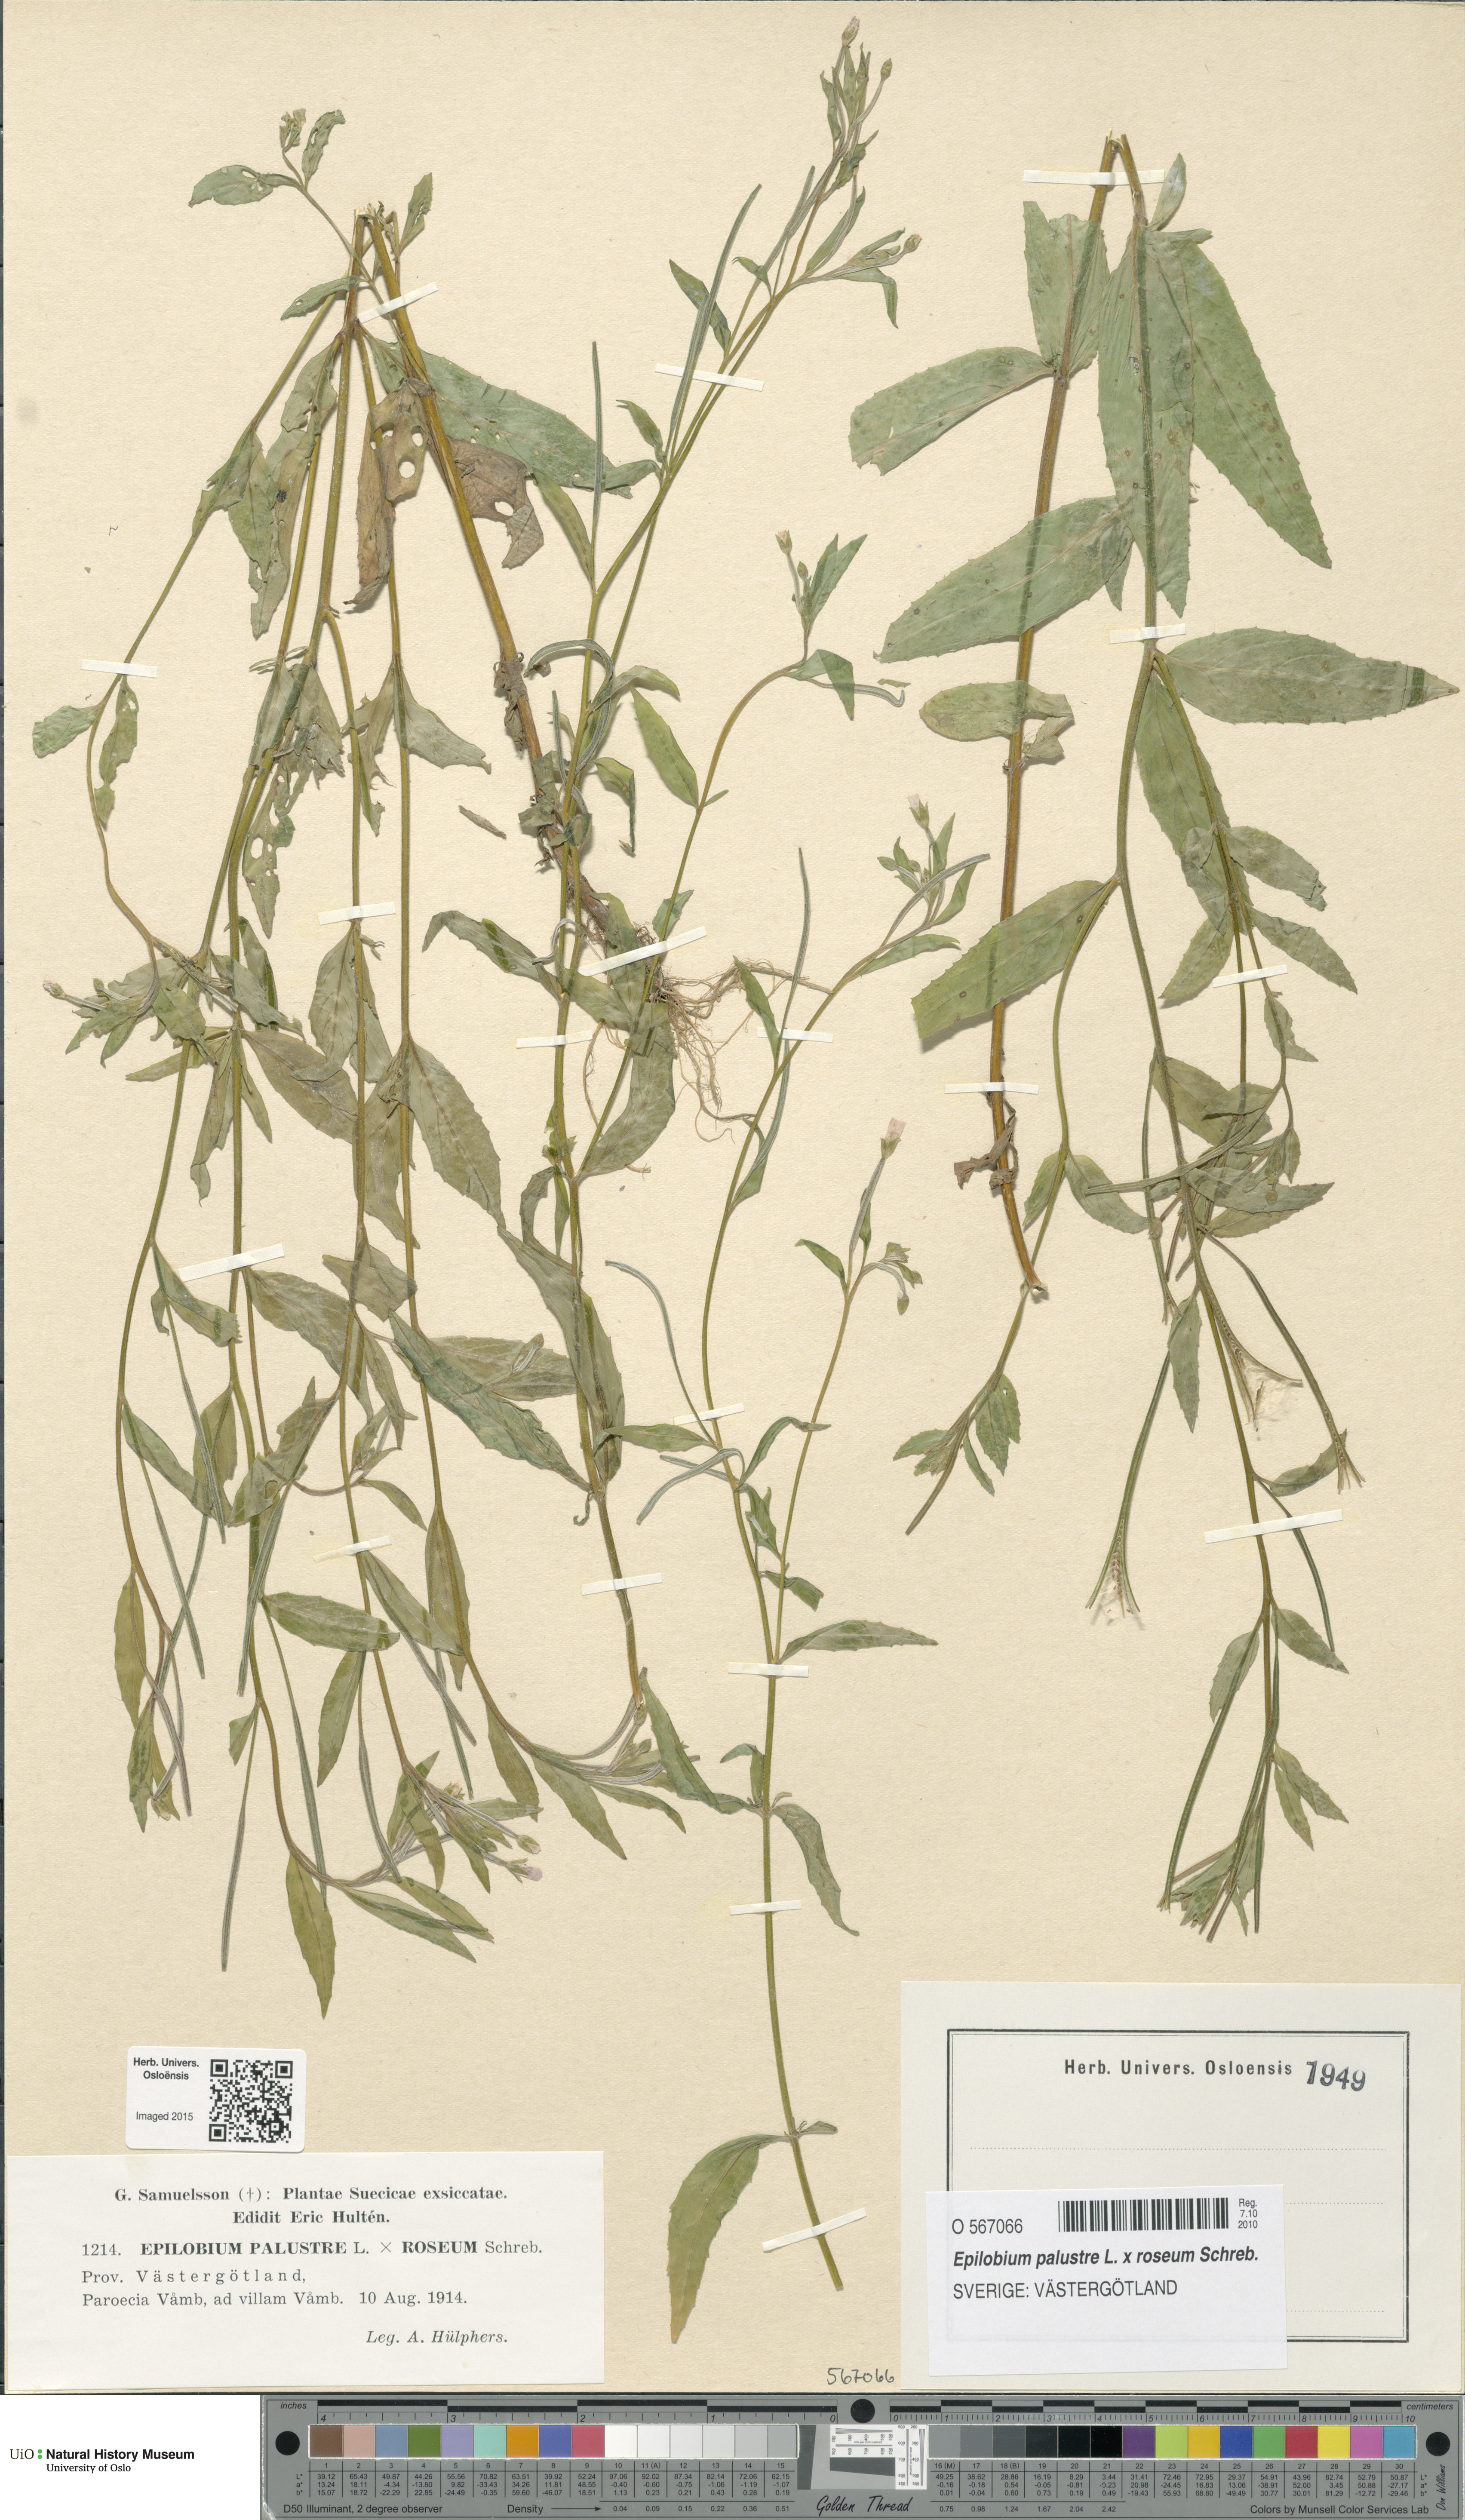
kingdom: Plantae
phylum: Tracheophyta
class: Magnoliopsida
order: Myrtales
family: Onagraceae
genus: Epilobium
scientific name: Epilobium
